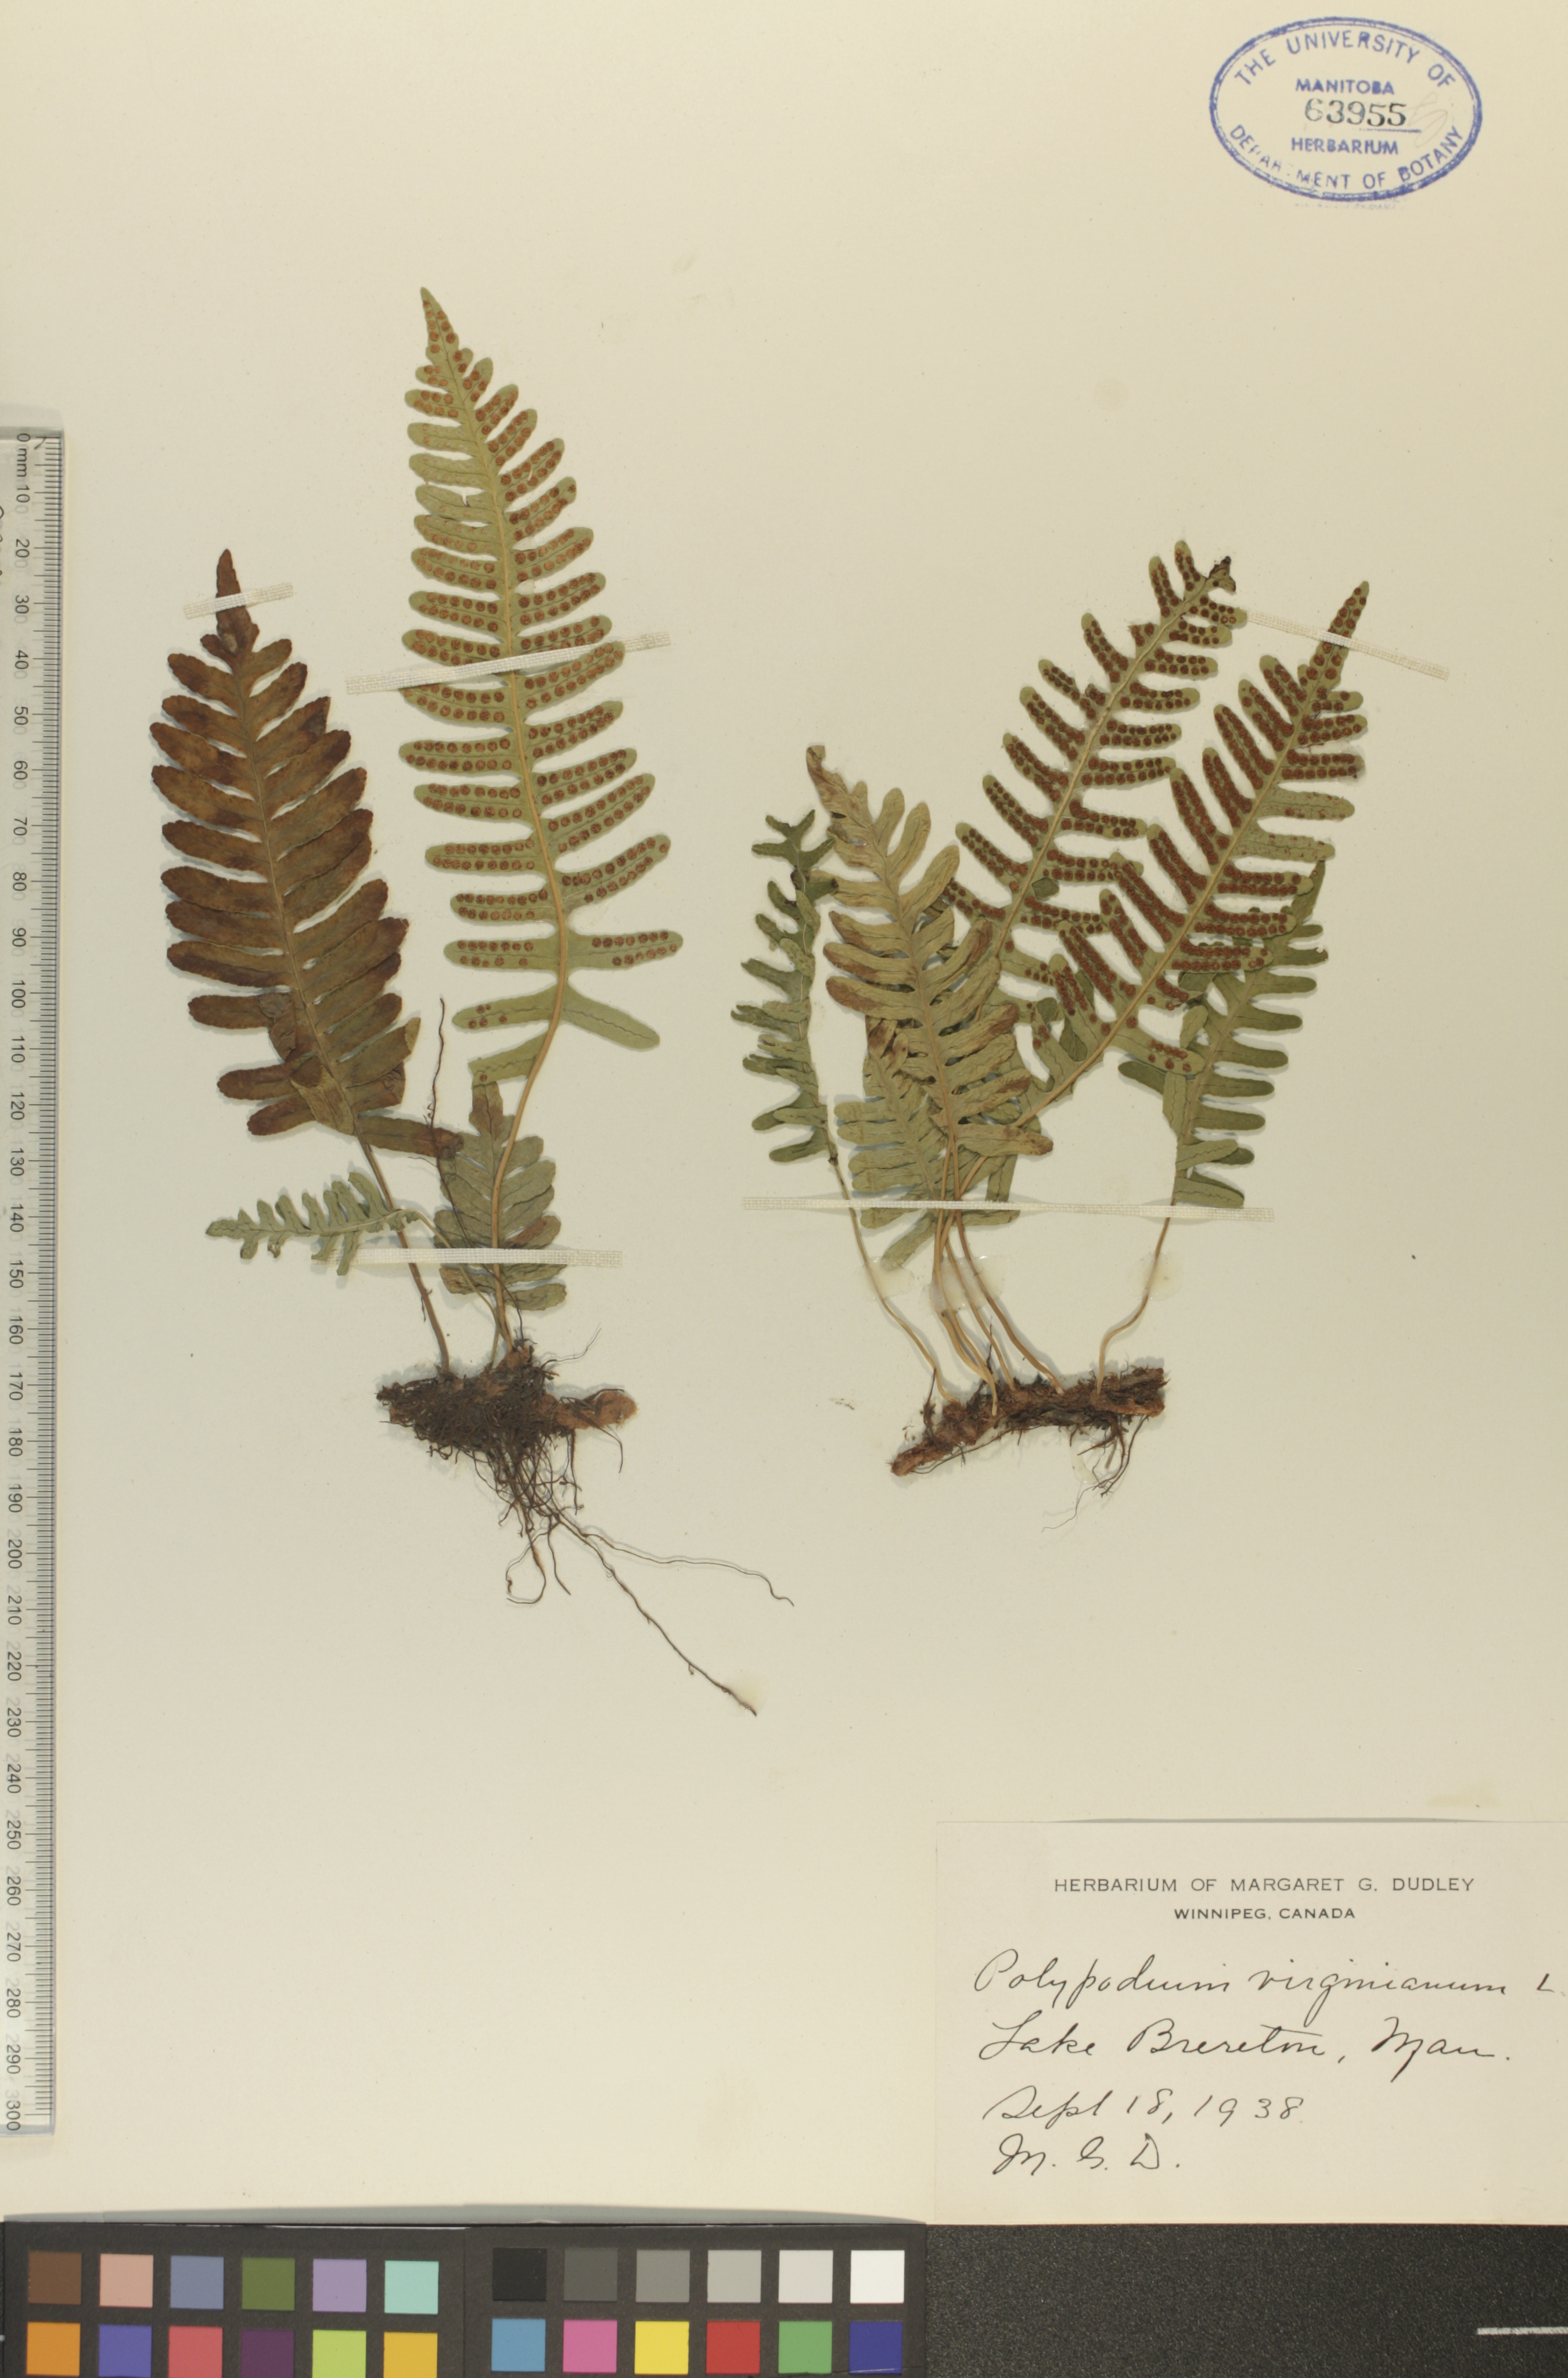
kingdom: Plantae
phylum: Tracheophyta
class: Polypodiopsida
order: Polypodiales
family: Polypodiaceae
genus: Polypodium
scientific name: Polypodium virginianum
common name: American wall fern
